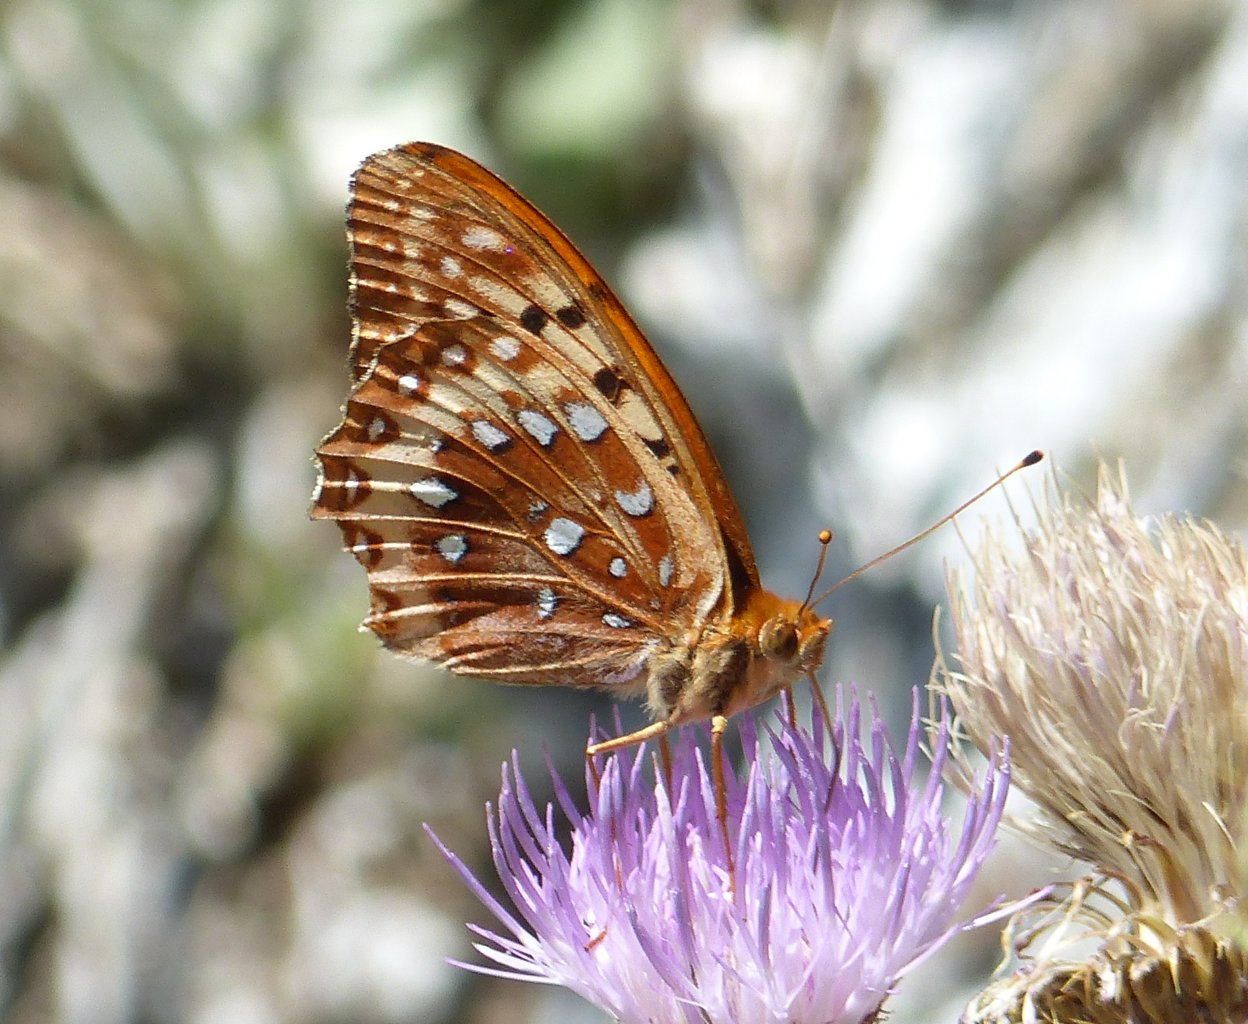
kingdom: Animalia
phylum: Arthropoda
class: Insecta
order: Lepidoptera
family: Nymphalidae
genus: Speyeria
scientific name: Speyeria zerene
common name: Zerene Fritillary
